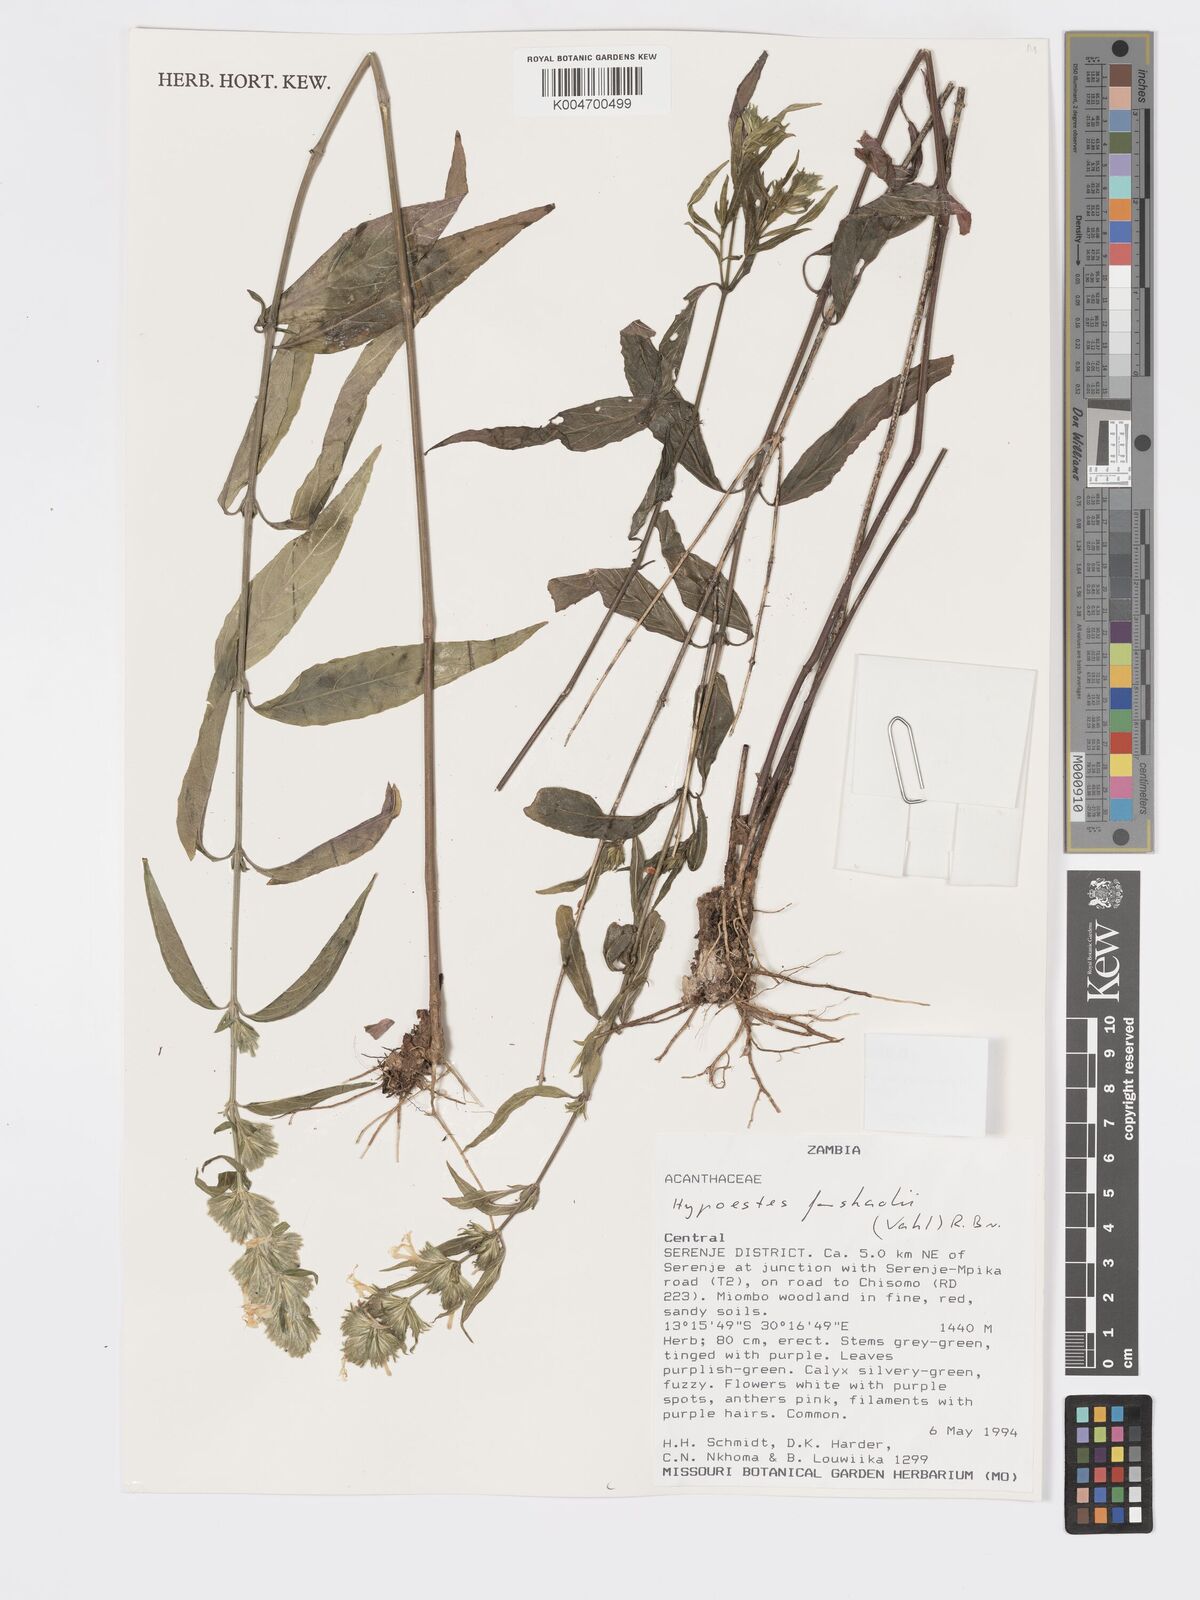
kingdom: Plantae
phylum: Tracheophyta
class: Magnoliopsida
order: Lamiales
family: Acanthaceae
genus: Hypoestes
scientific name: Hypoestes forskaolii
